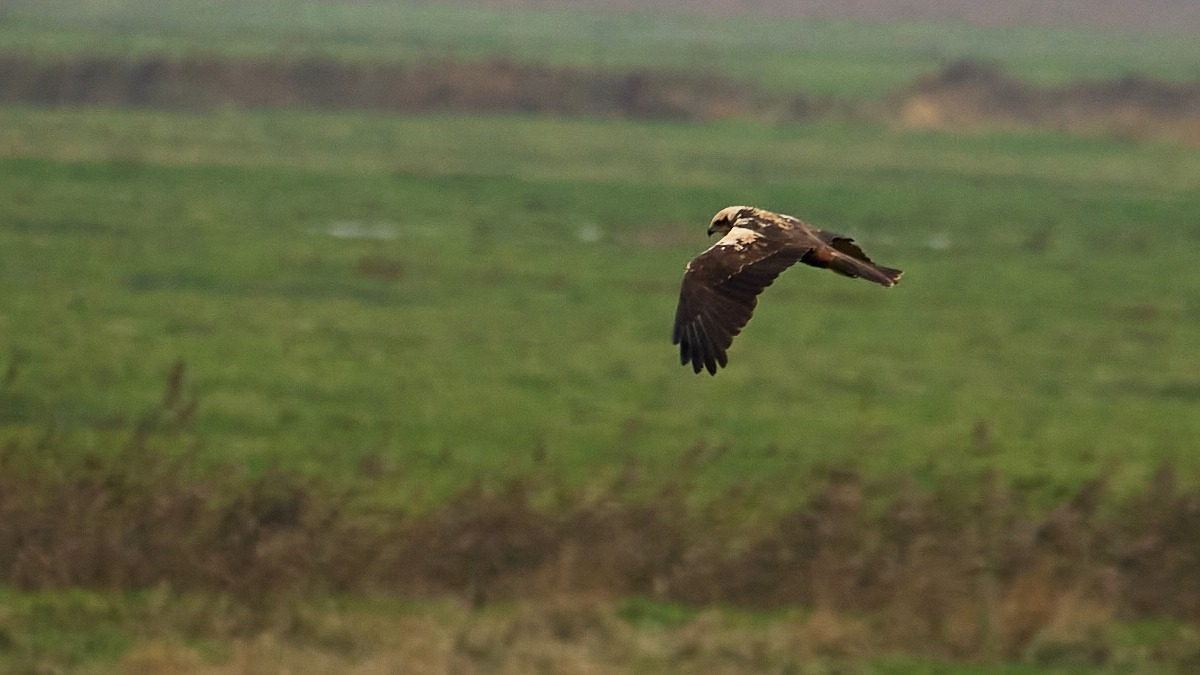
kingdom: Animalia
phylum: Chordata
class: Aves
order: Accipitriformes
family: Accipitridae
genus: Circus
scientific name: Circus aeruginosus
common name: Rørhøg
